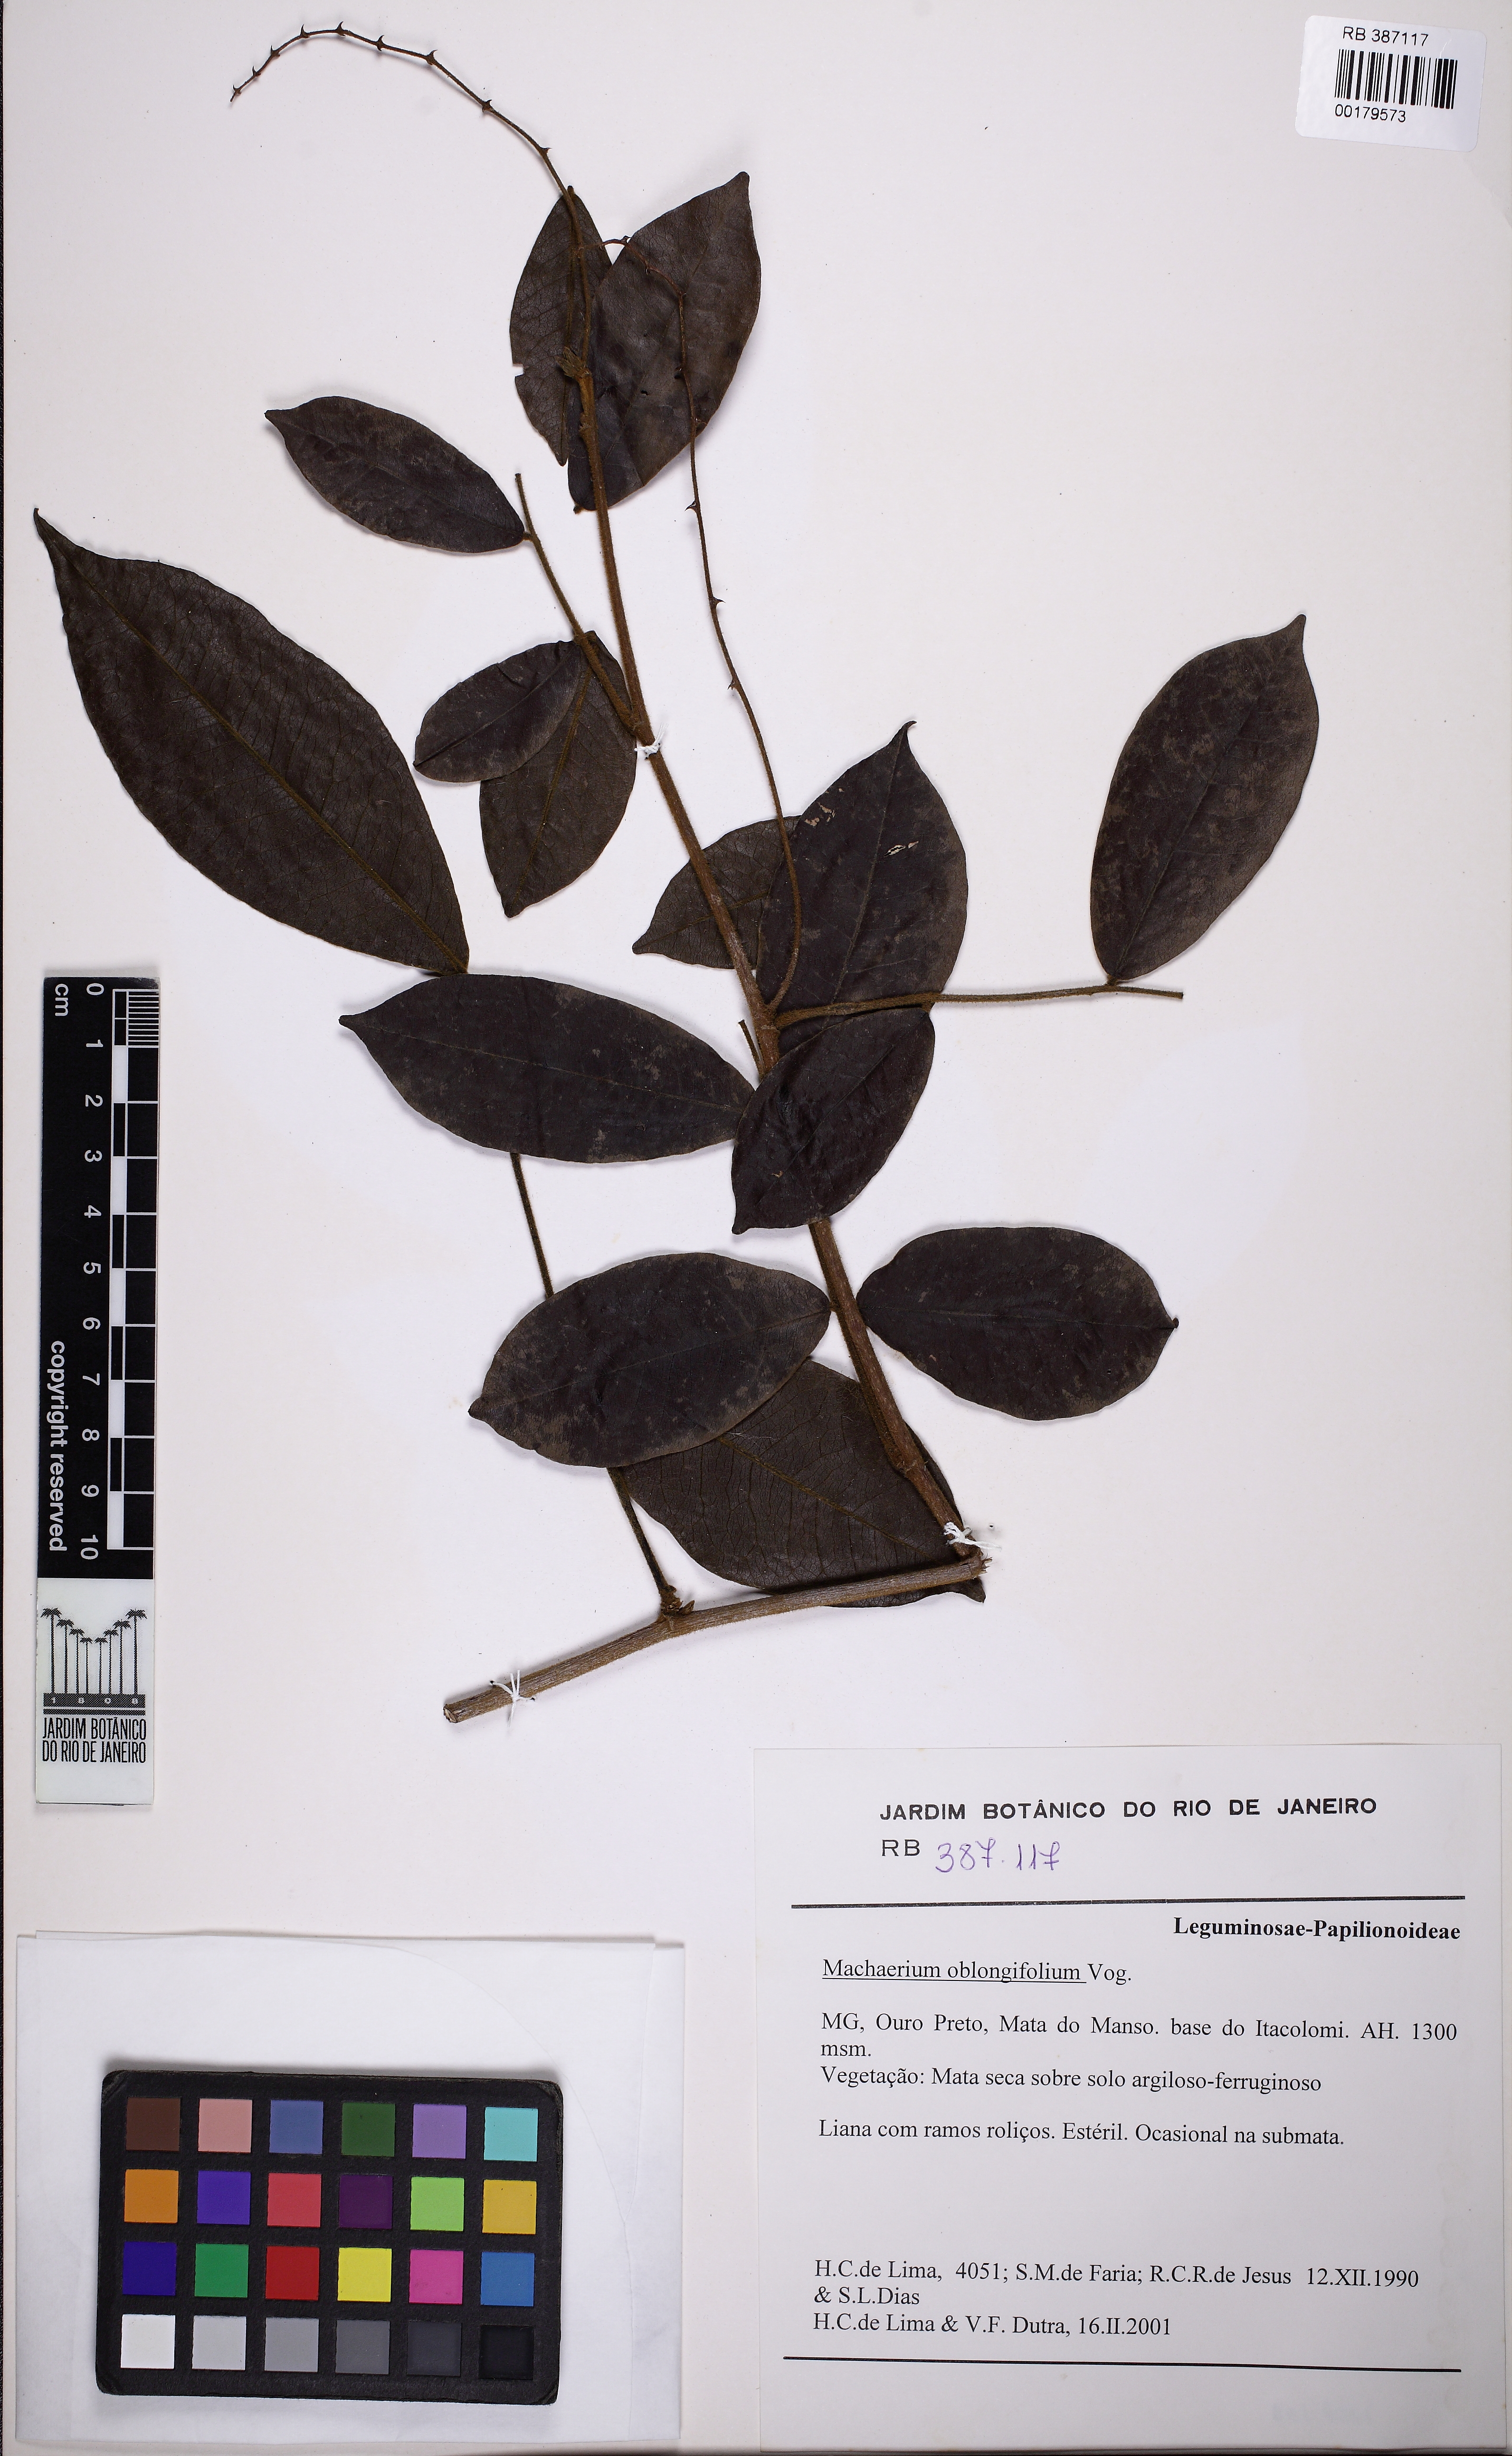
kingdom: Plantae
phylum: Tracheophyta
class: Magnoliopsida
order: Fabales
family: Fabaceae
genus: Machaerium
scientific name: Machaerium oblongifolium
